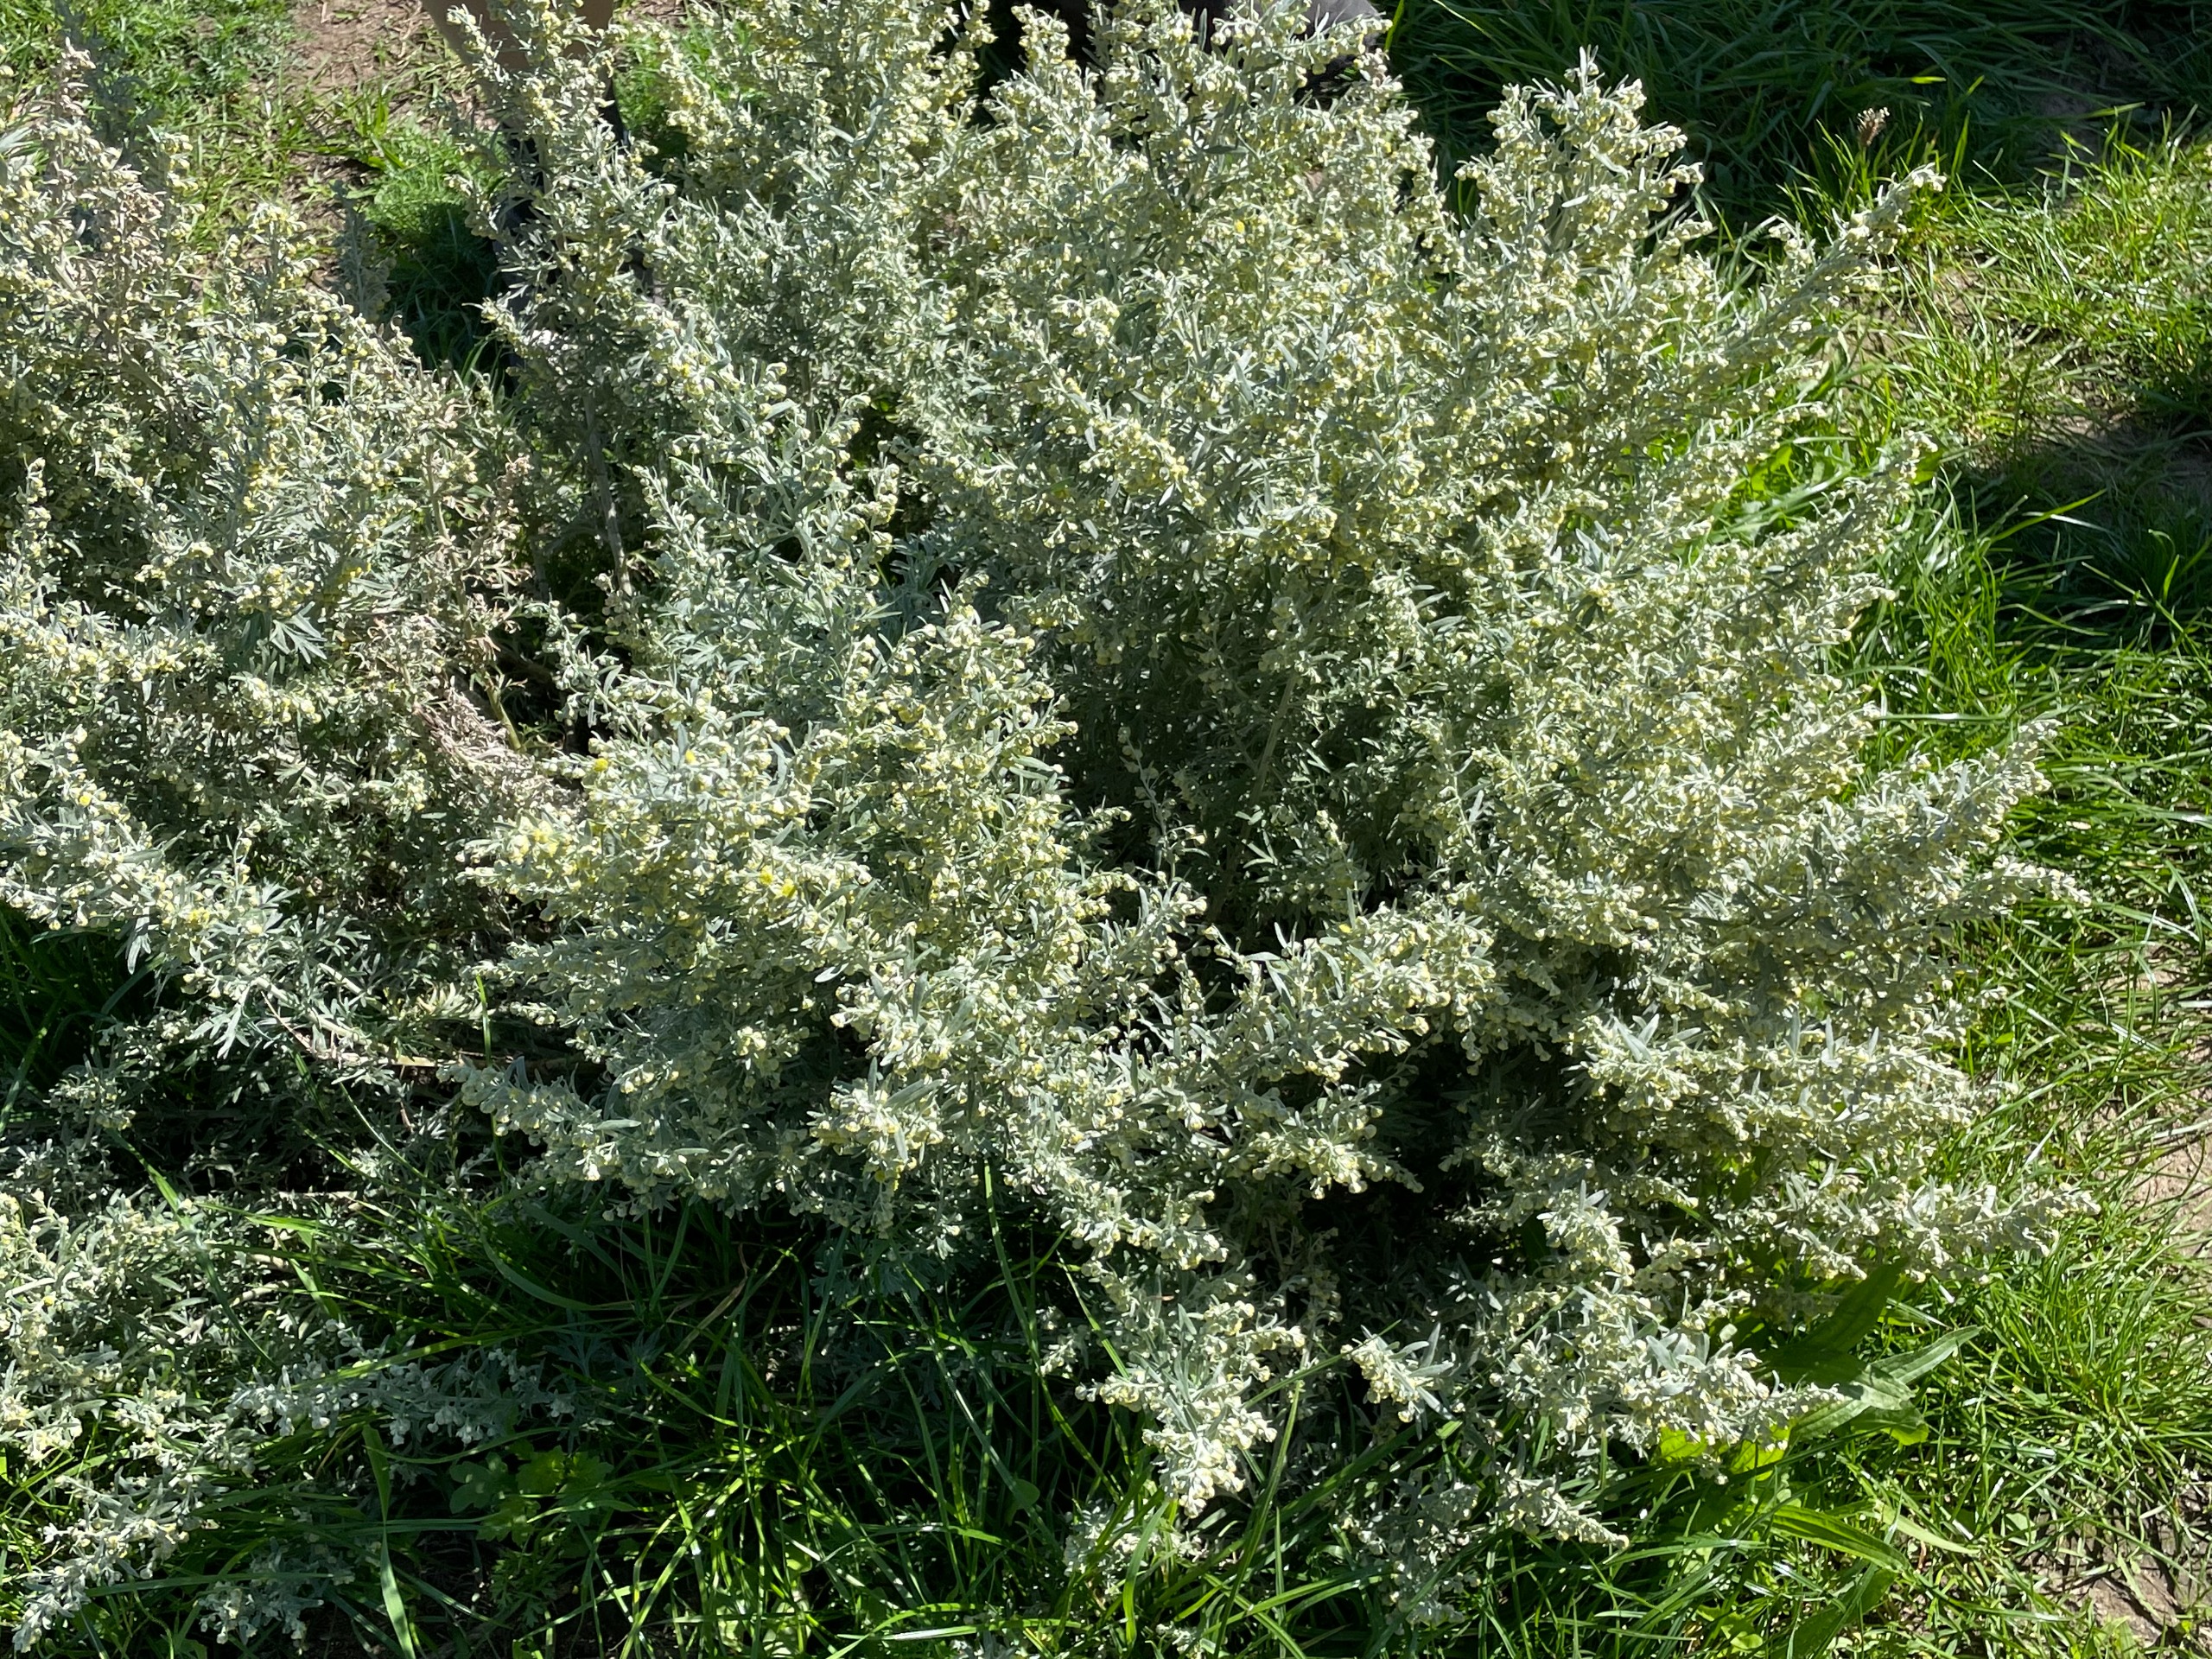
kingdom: Plantae
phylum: Tracheophyta
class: Magnoliopsida
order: Asterales
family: Asteraceae
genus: Artemisia
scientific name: Artemisia absinthium
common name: Havemalurt
